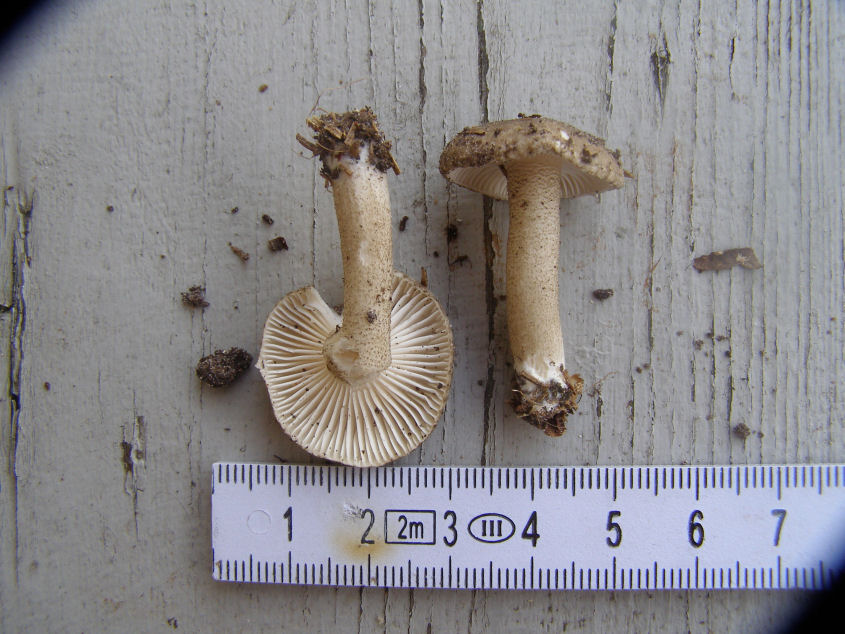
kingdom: Fungi
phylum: Basidiomycota
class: Agaricomycetes
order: Agaricales
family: Hygrophoraceae
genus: Hygrophorus
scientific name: Hygrophorus pustulatus
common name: mørkprikket sneglehat
